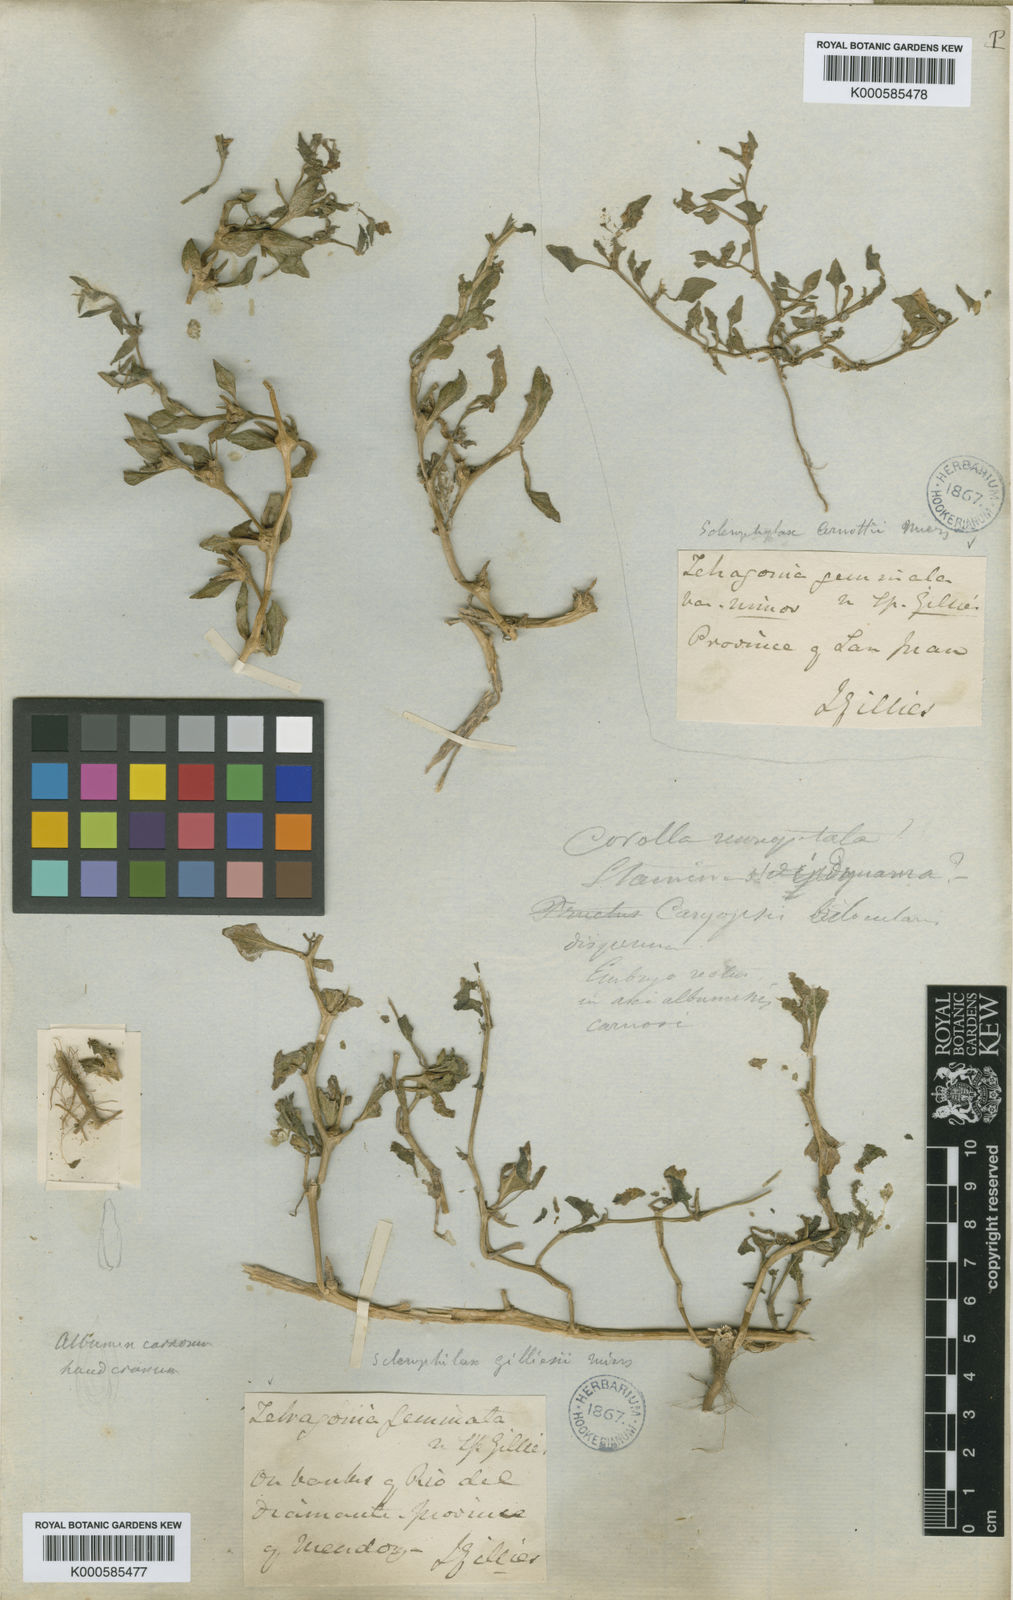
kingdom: Plantae
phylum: Tracheophyta
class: Magnoliopsida
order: Solanales
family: Solanaceae
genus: Sclerophylax
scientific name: Sclerophylax arnottii
